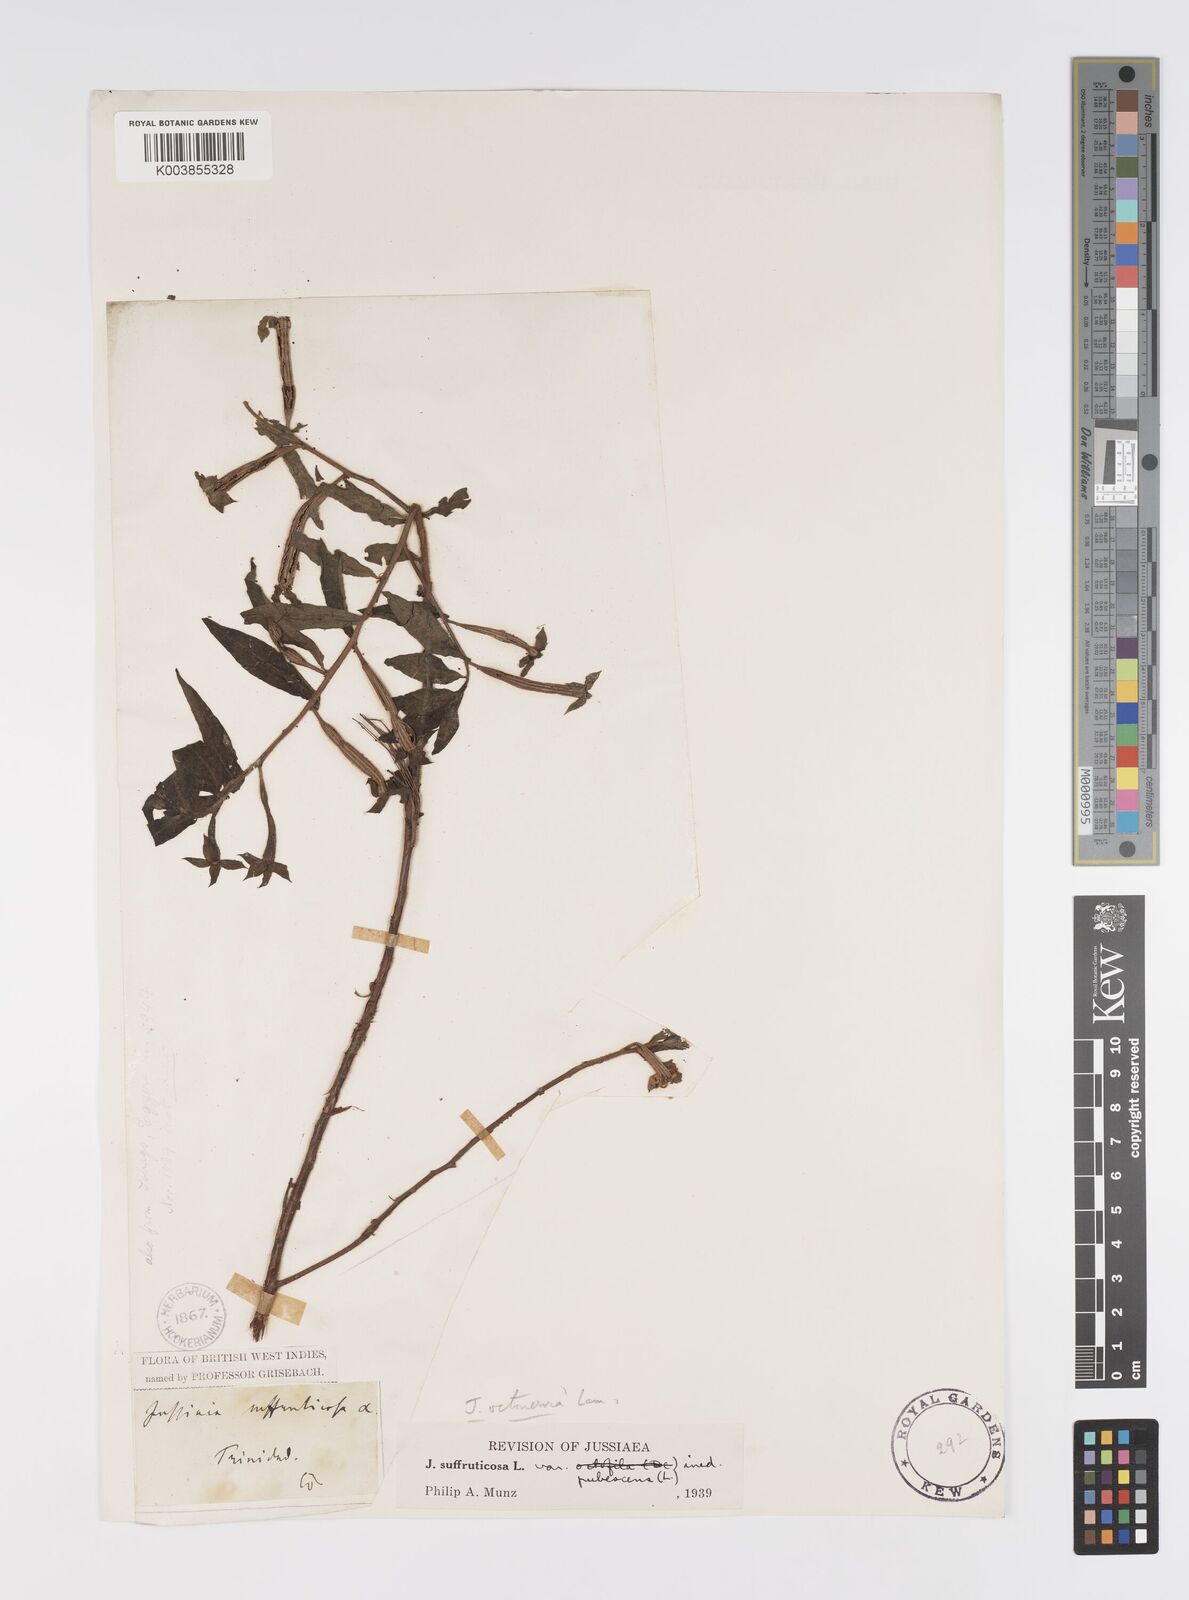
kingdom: Plantae
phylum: Tracheophyta
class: Magnoliopsida
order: Myrtales
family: Onagraceae
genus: Ludwigia
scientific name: Ludwigia
